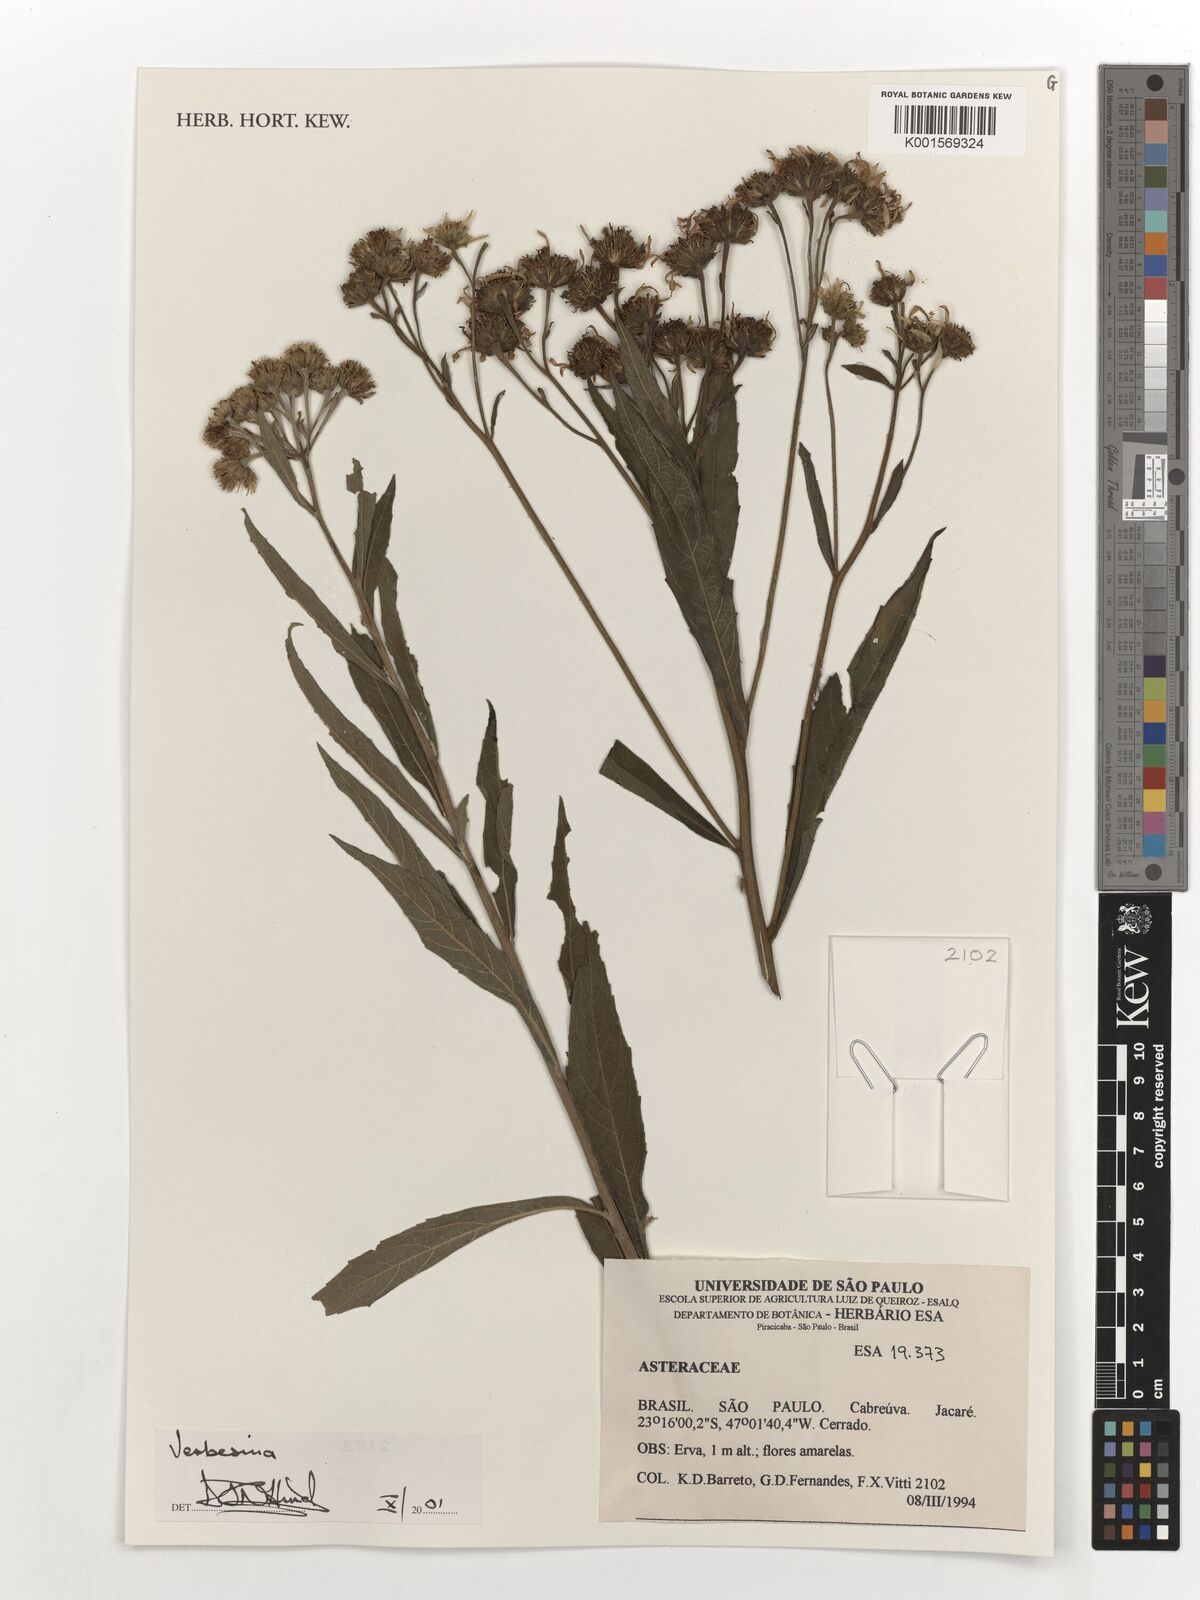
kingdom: Plantae
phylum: Tracheophyta
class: Magnoliopsida
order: Asterales
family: Asteraceae
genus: Verbesina
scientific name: Verbesina
